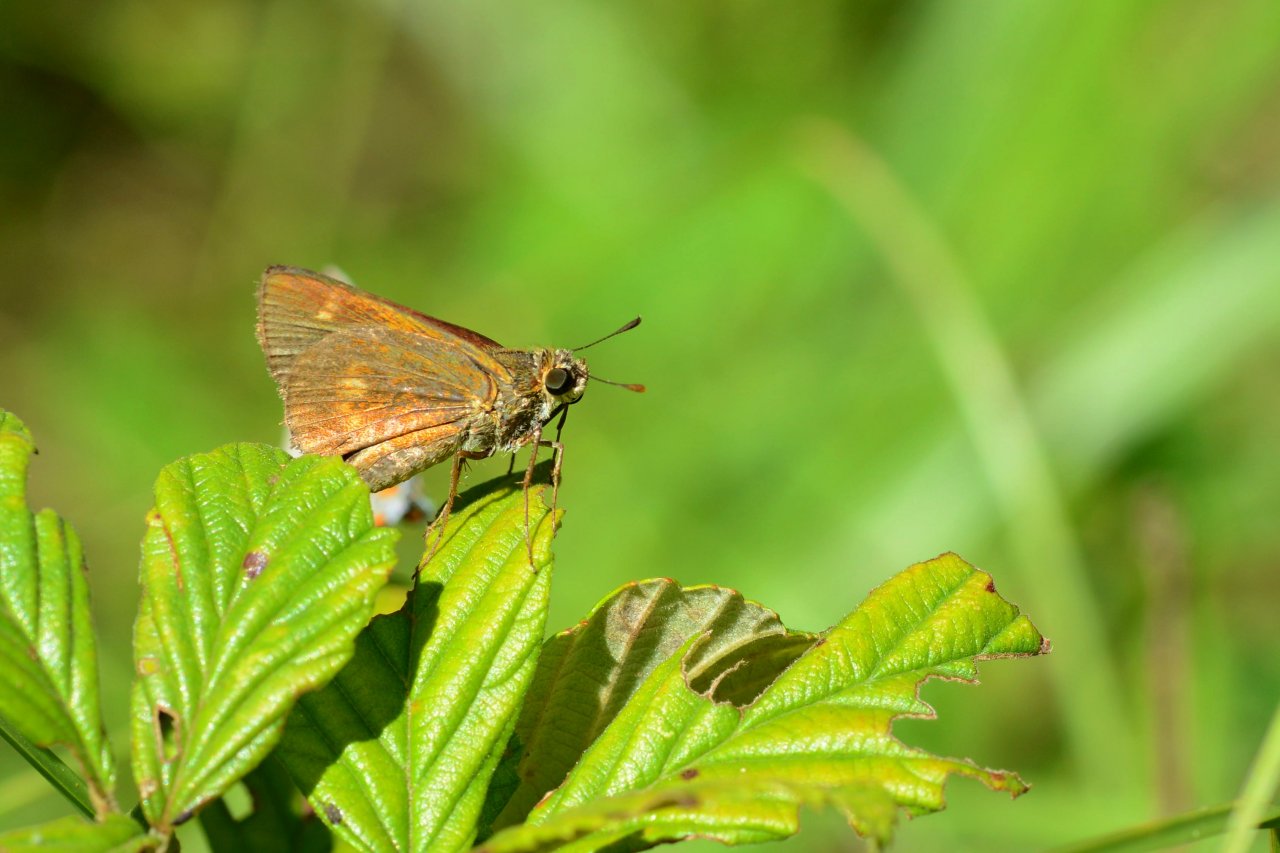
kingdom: Animalia
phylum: Arthropoda
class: Insecta
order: Lepidoptera
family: Hesperiidae
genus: Wallengrenia
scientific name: Wallengrenia otho
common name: Southern Broken-Dash
